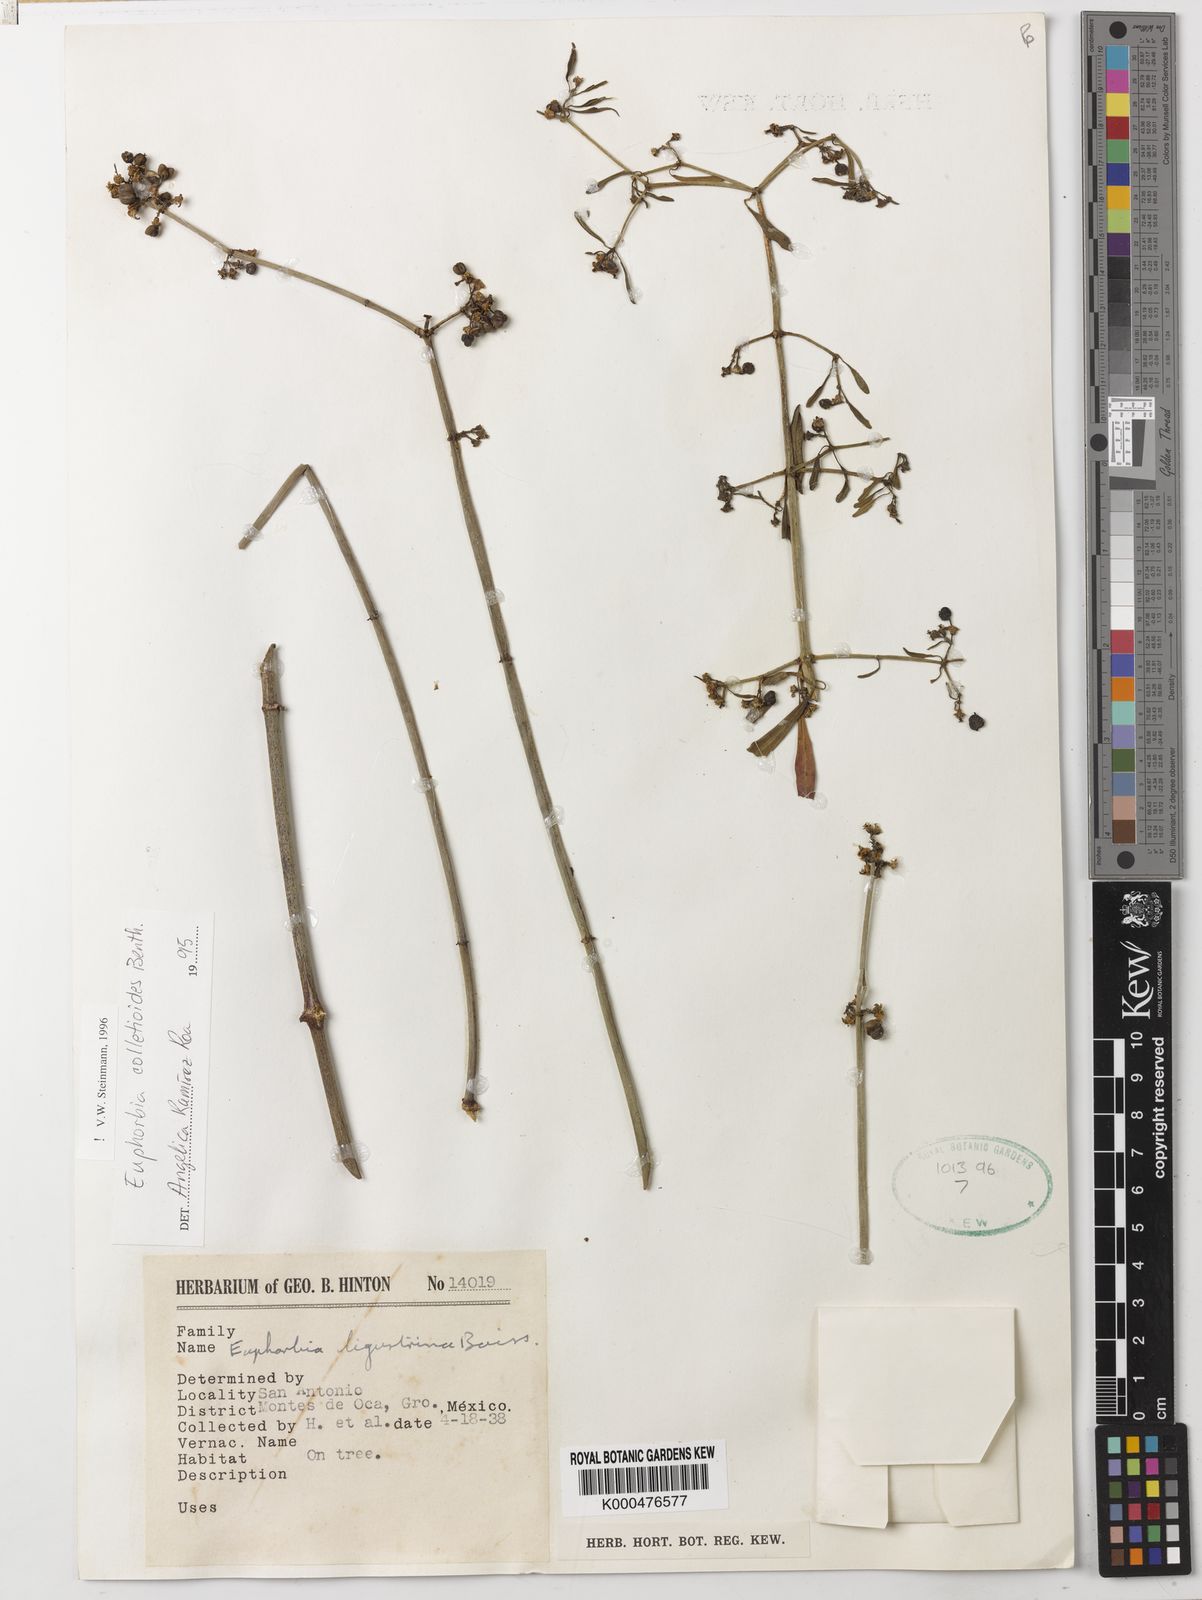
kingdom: Plantae
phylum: Tracheophyta
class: Magnoliopsida
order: Malpighiales
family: Euphorbiaceae
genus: Euphorbia
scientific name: Euphorbia colletioides
